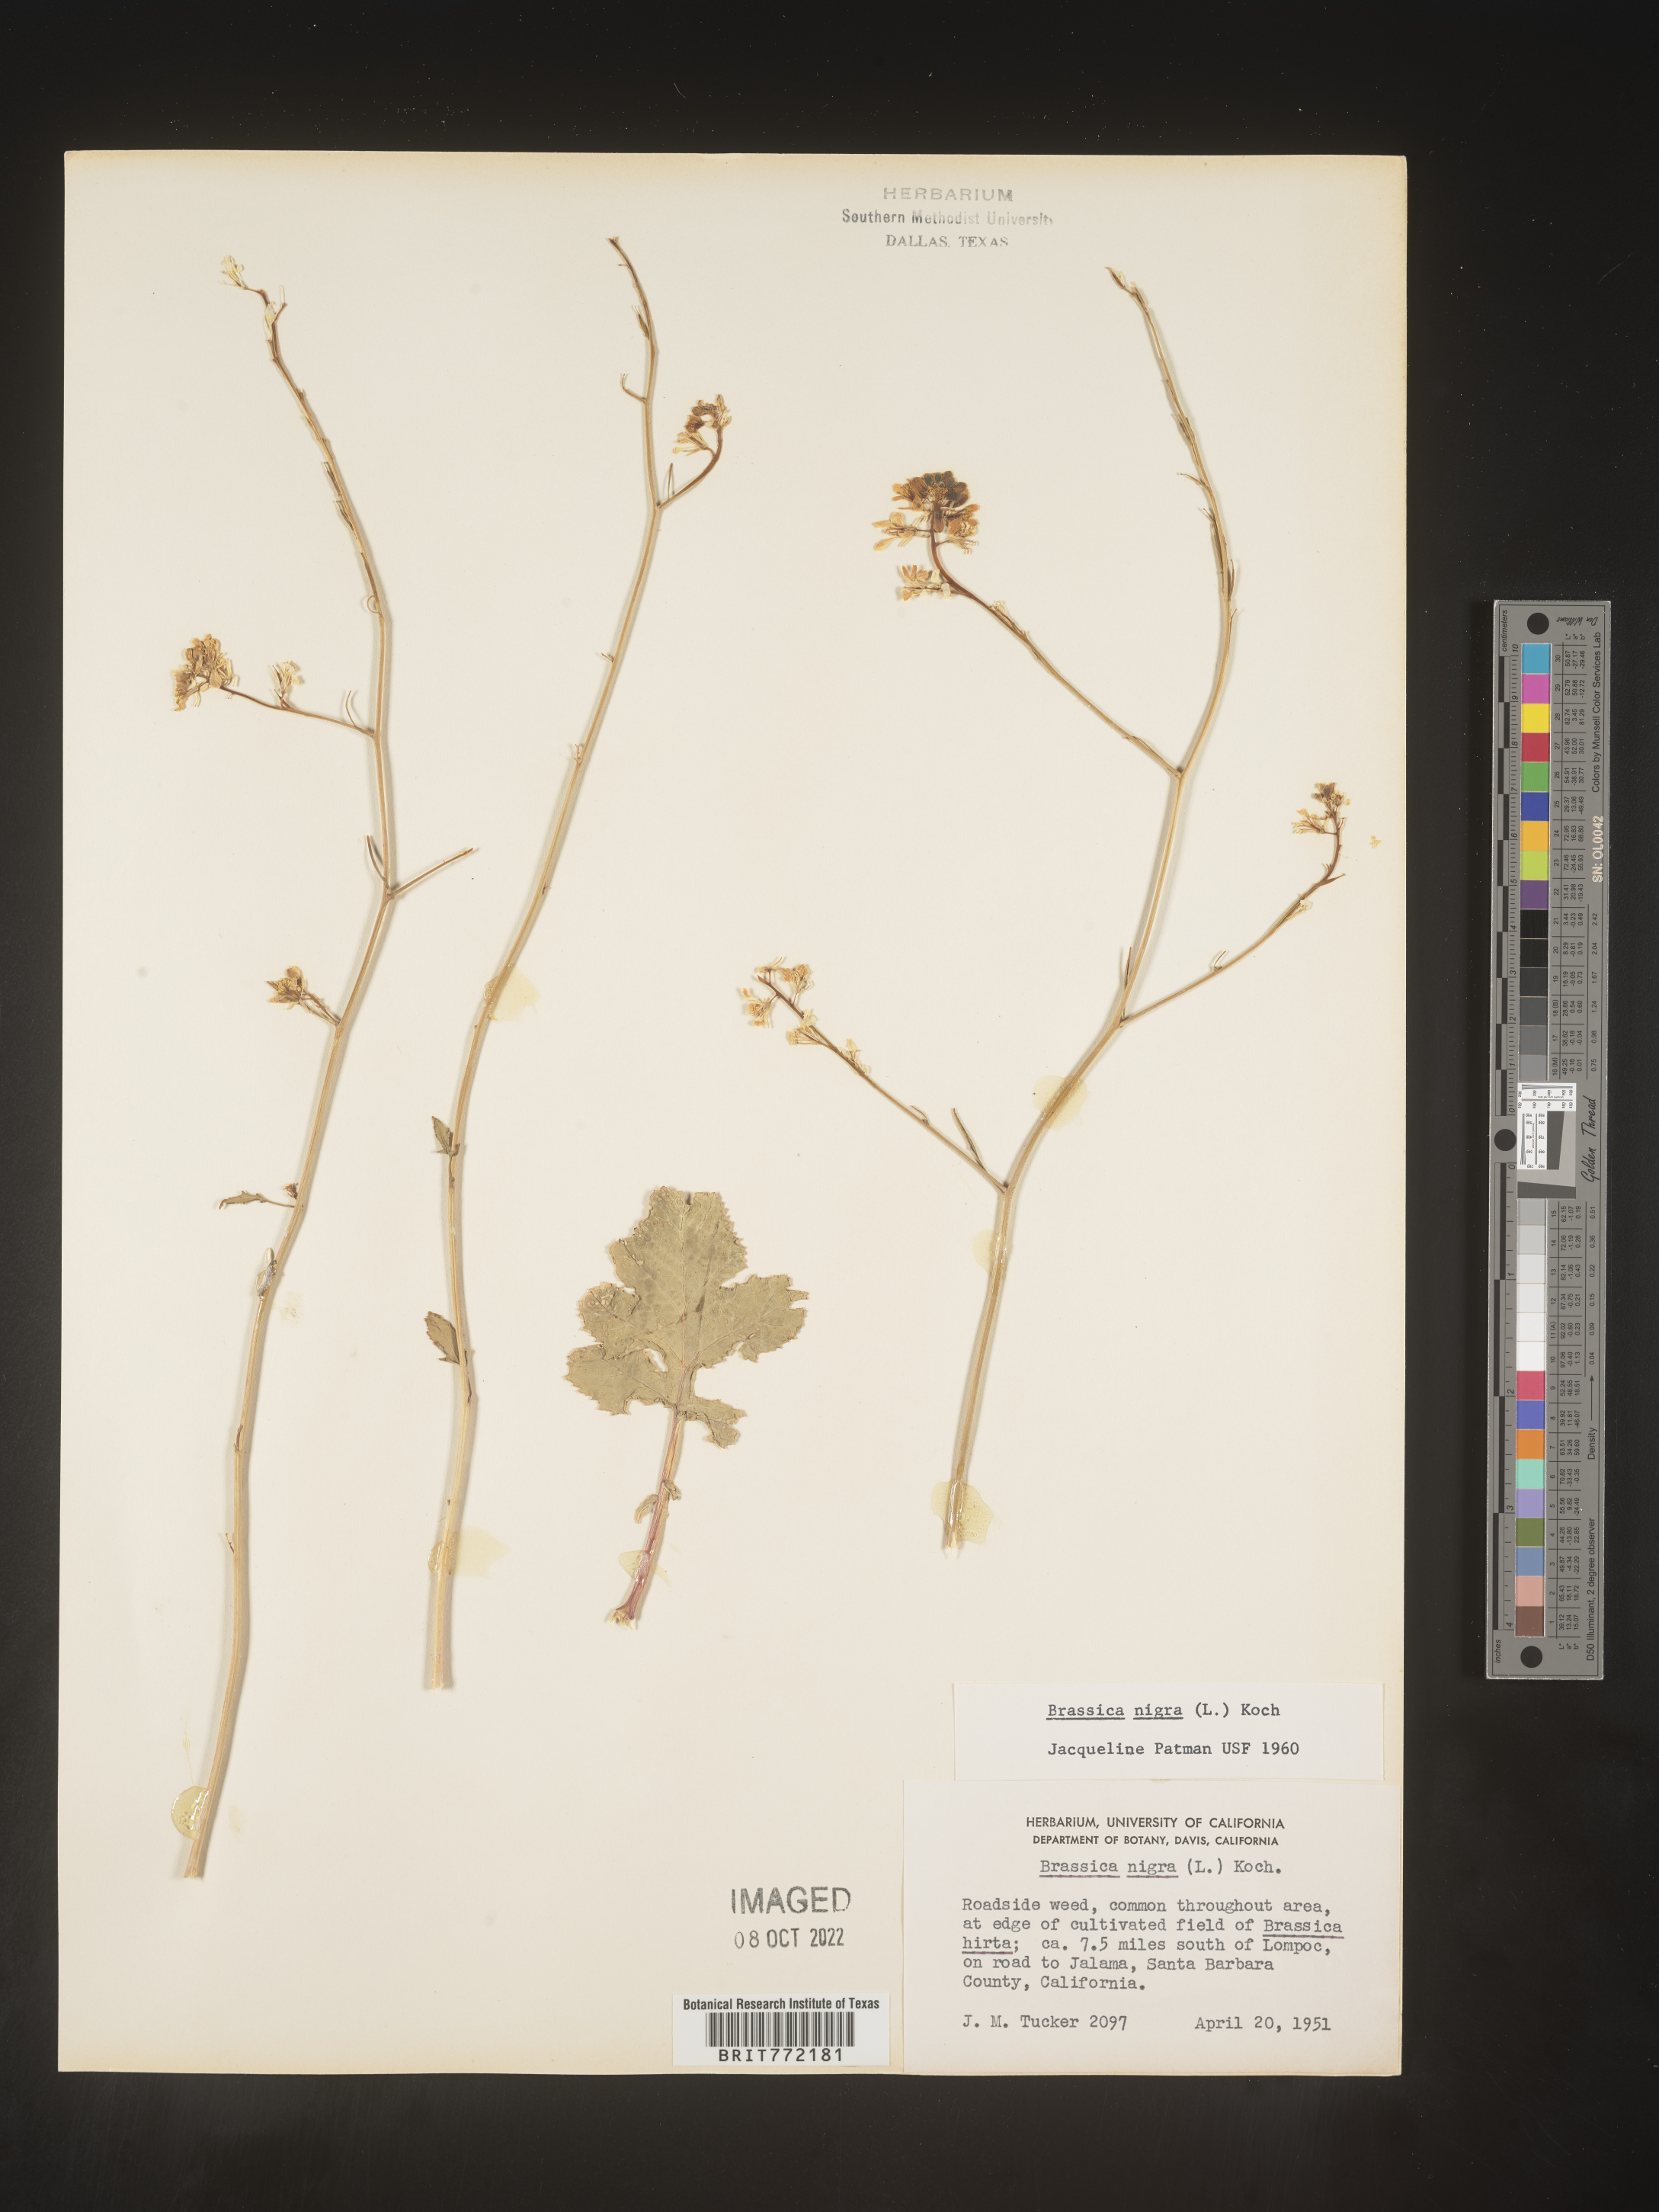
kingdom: Plantae
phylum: Tracheophyta
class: Magnoliopsida
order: Brassicales
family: Brassicaceae
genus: Brassica
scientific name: Brassica nigra
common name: Black mustard
